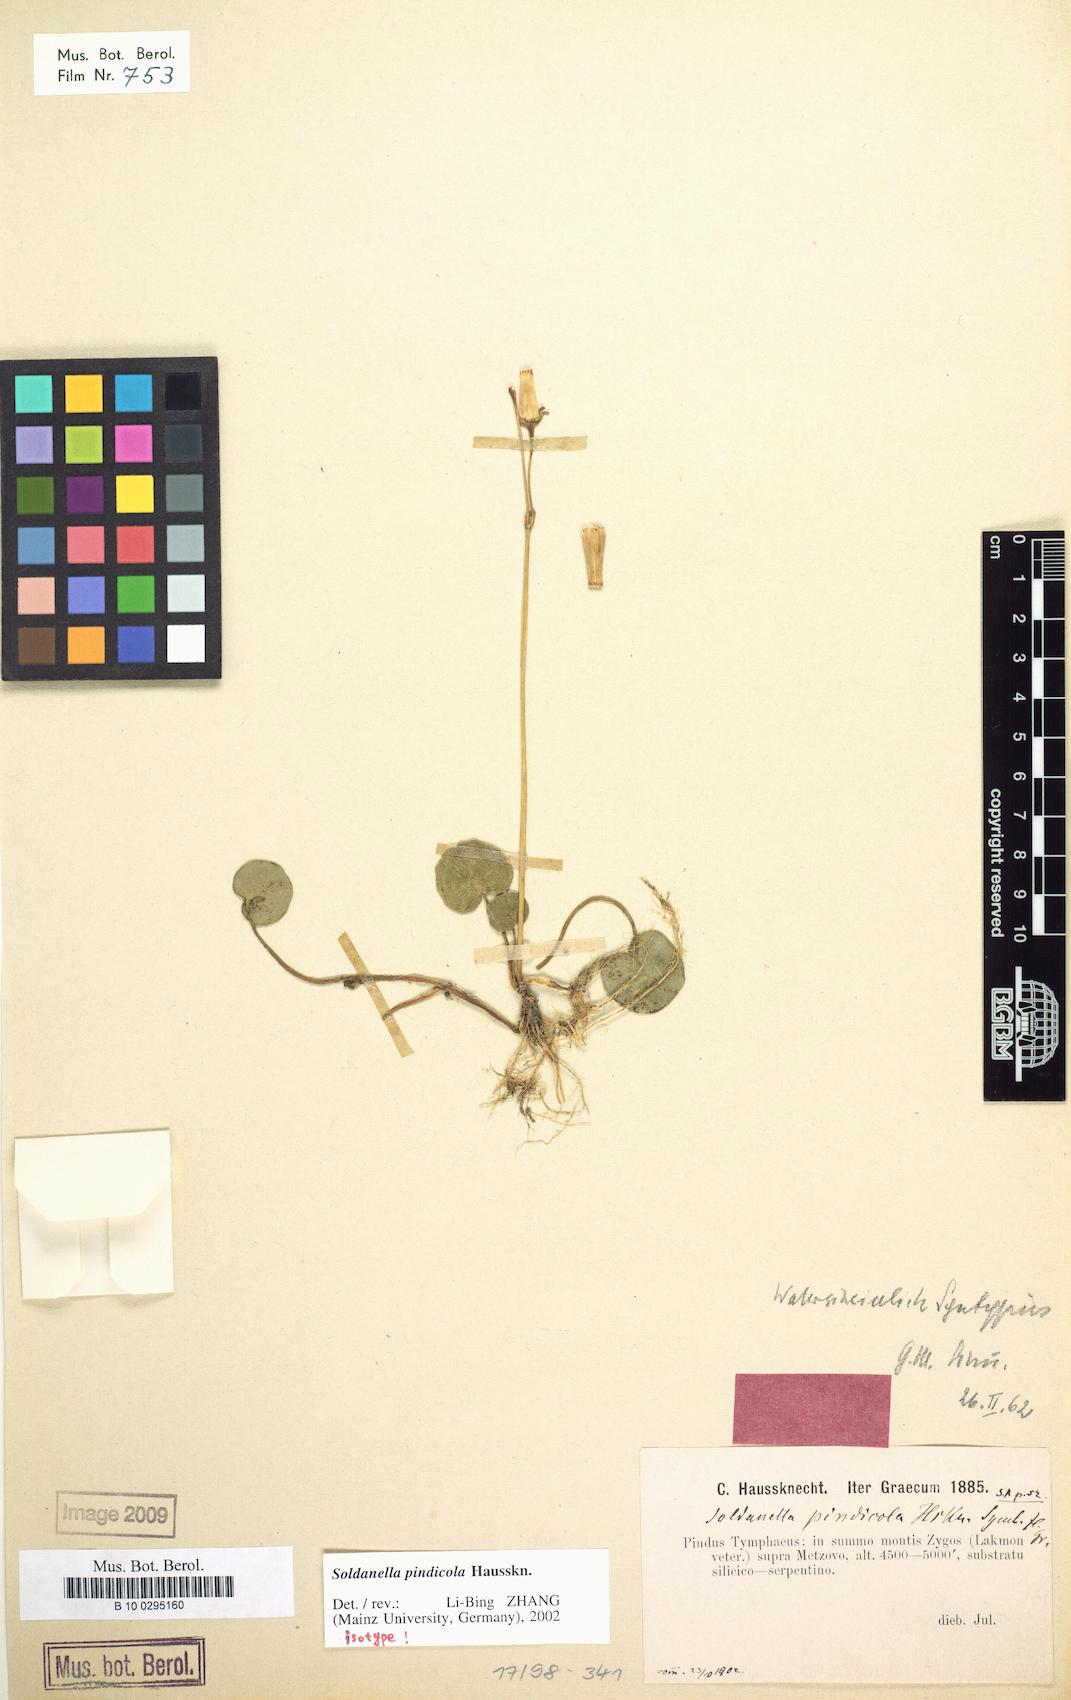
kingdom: Plantae
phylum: Tracheophyta
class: Magnoliopsida
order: Ericales
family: Primulaceae
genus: Soldanella
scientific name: Soldanella pindicola
